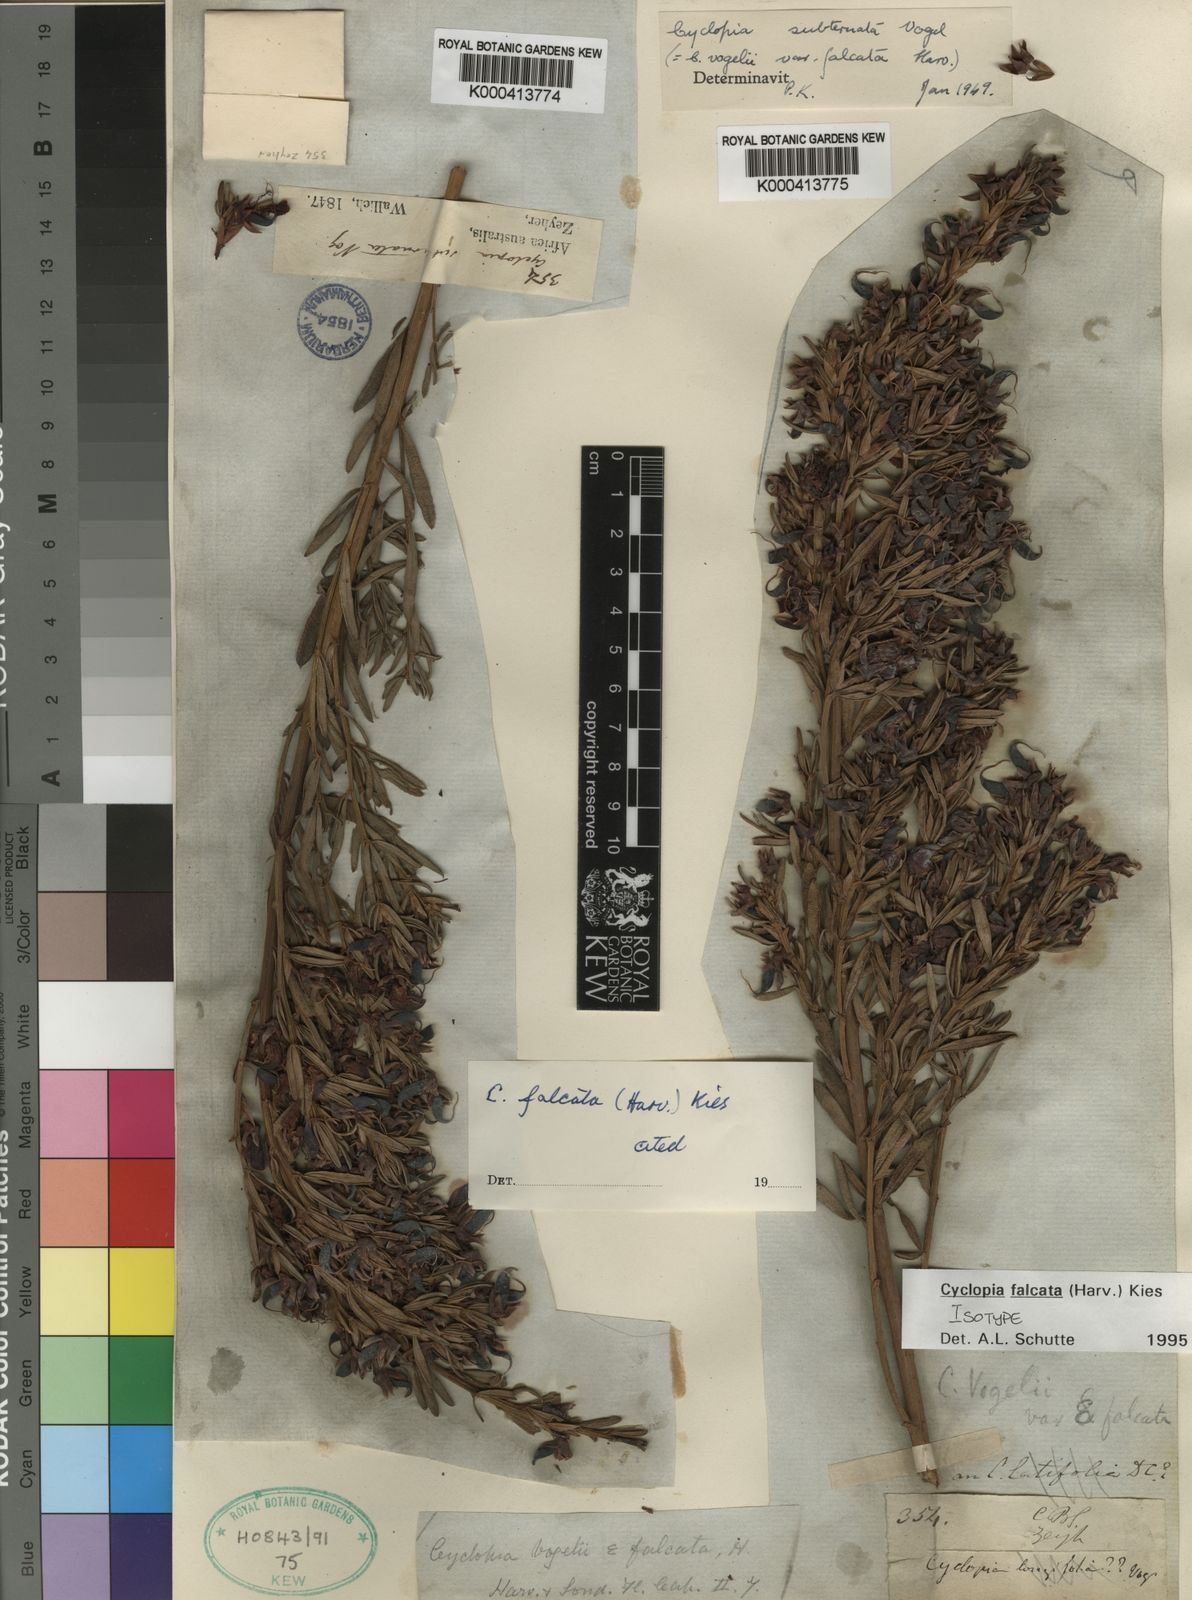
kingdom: Plantae
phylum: Tracheophyta
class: Magnoliopsida
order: Fabales
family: Fabaceae
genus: Cyclopia
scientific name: Cyclopia falcata
